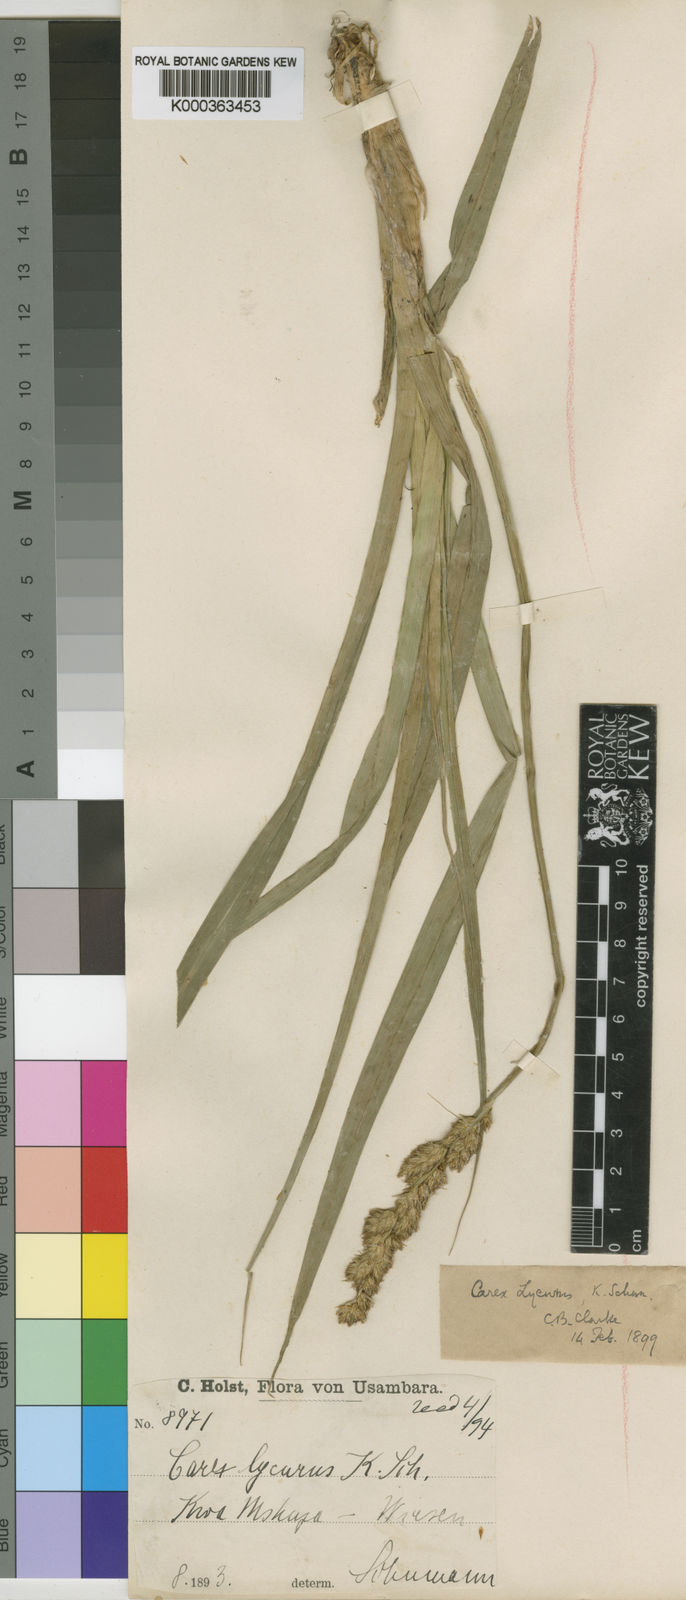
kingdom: Plantae
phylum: Tracheophyta
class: Liliopsida
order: Poales
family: Cyperaceae
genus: Carex
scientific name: Carex
